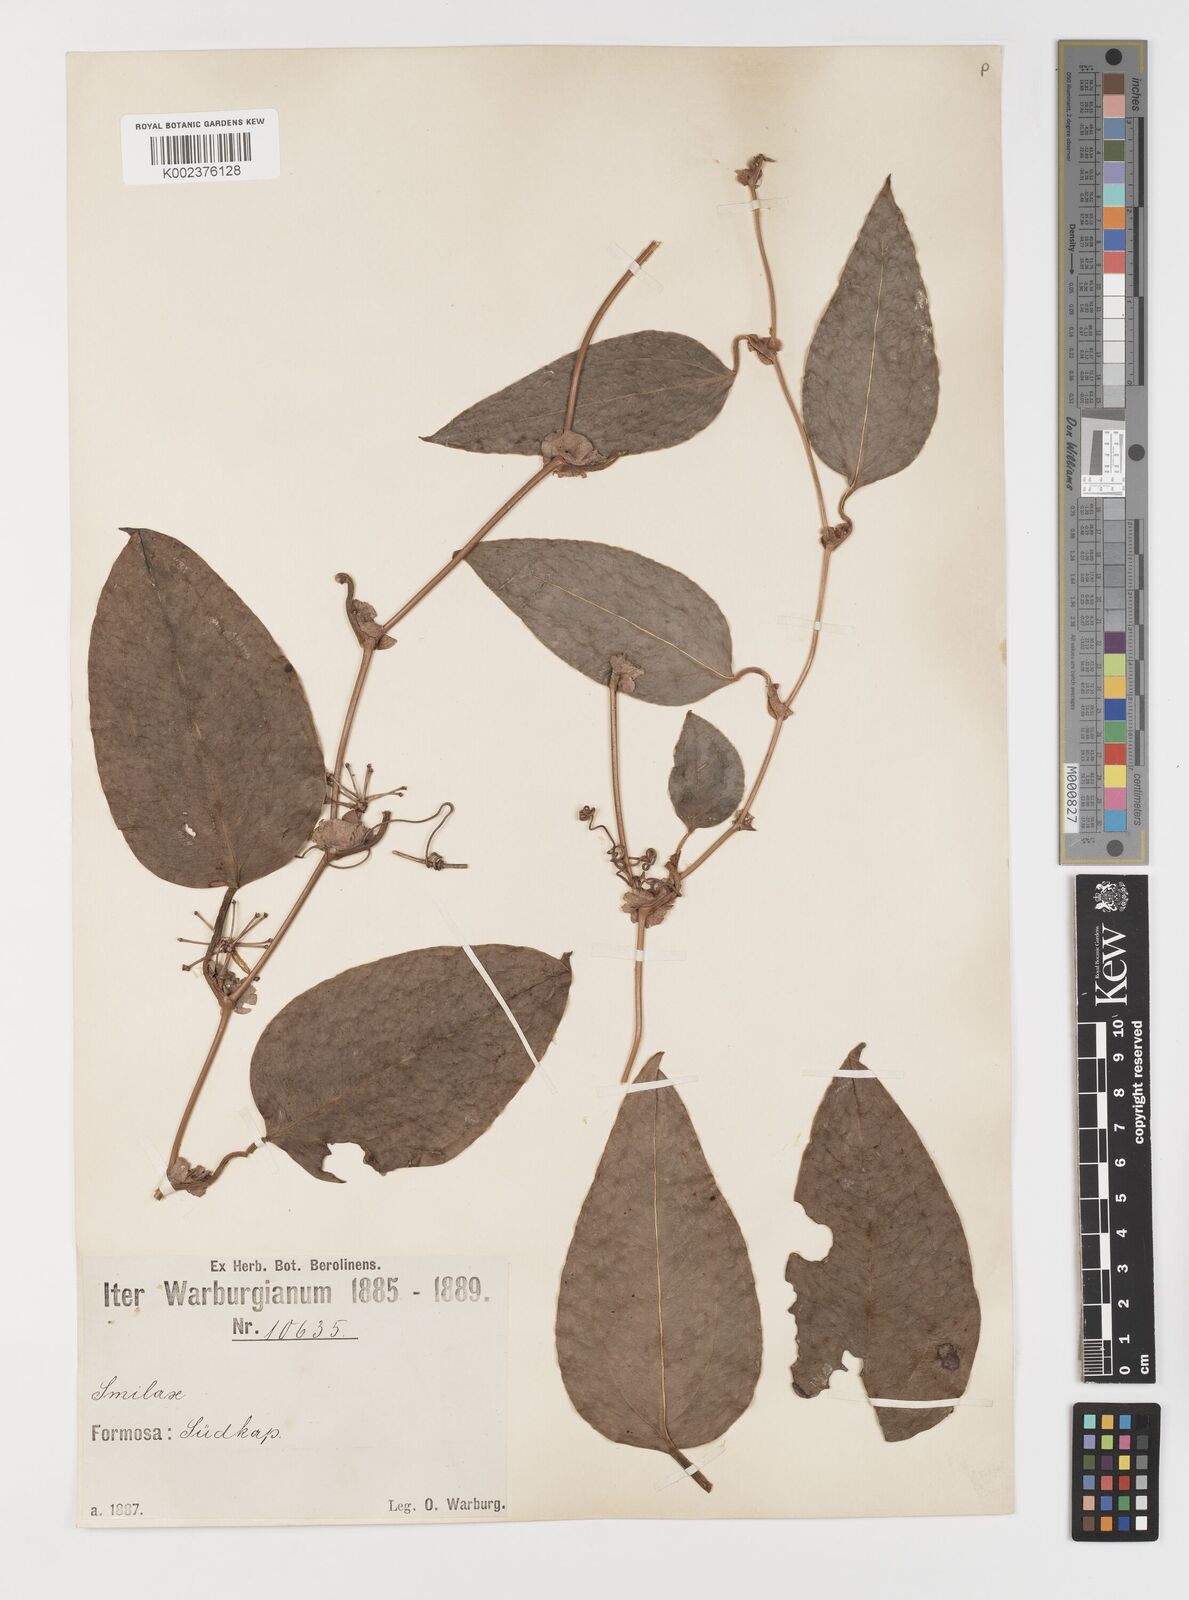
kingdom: Plantae
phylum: Tracheophyta
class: Liliopsida
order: Liliales
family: Smilacaceae
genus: Smilax
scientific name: Smilax
